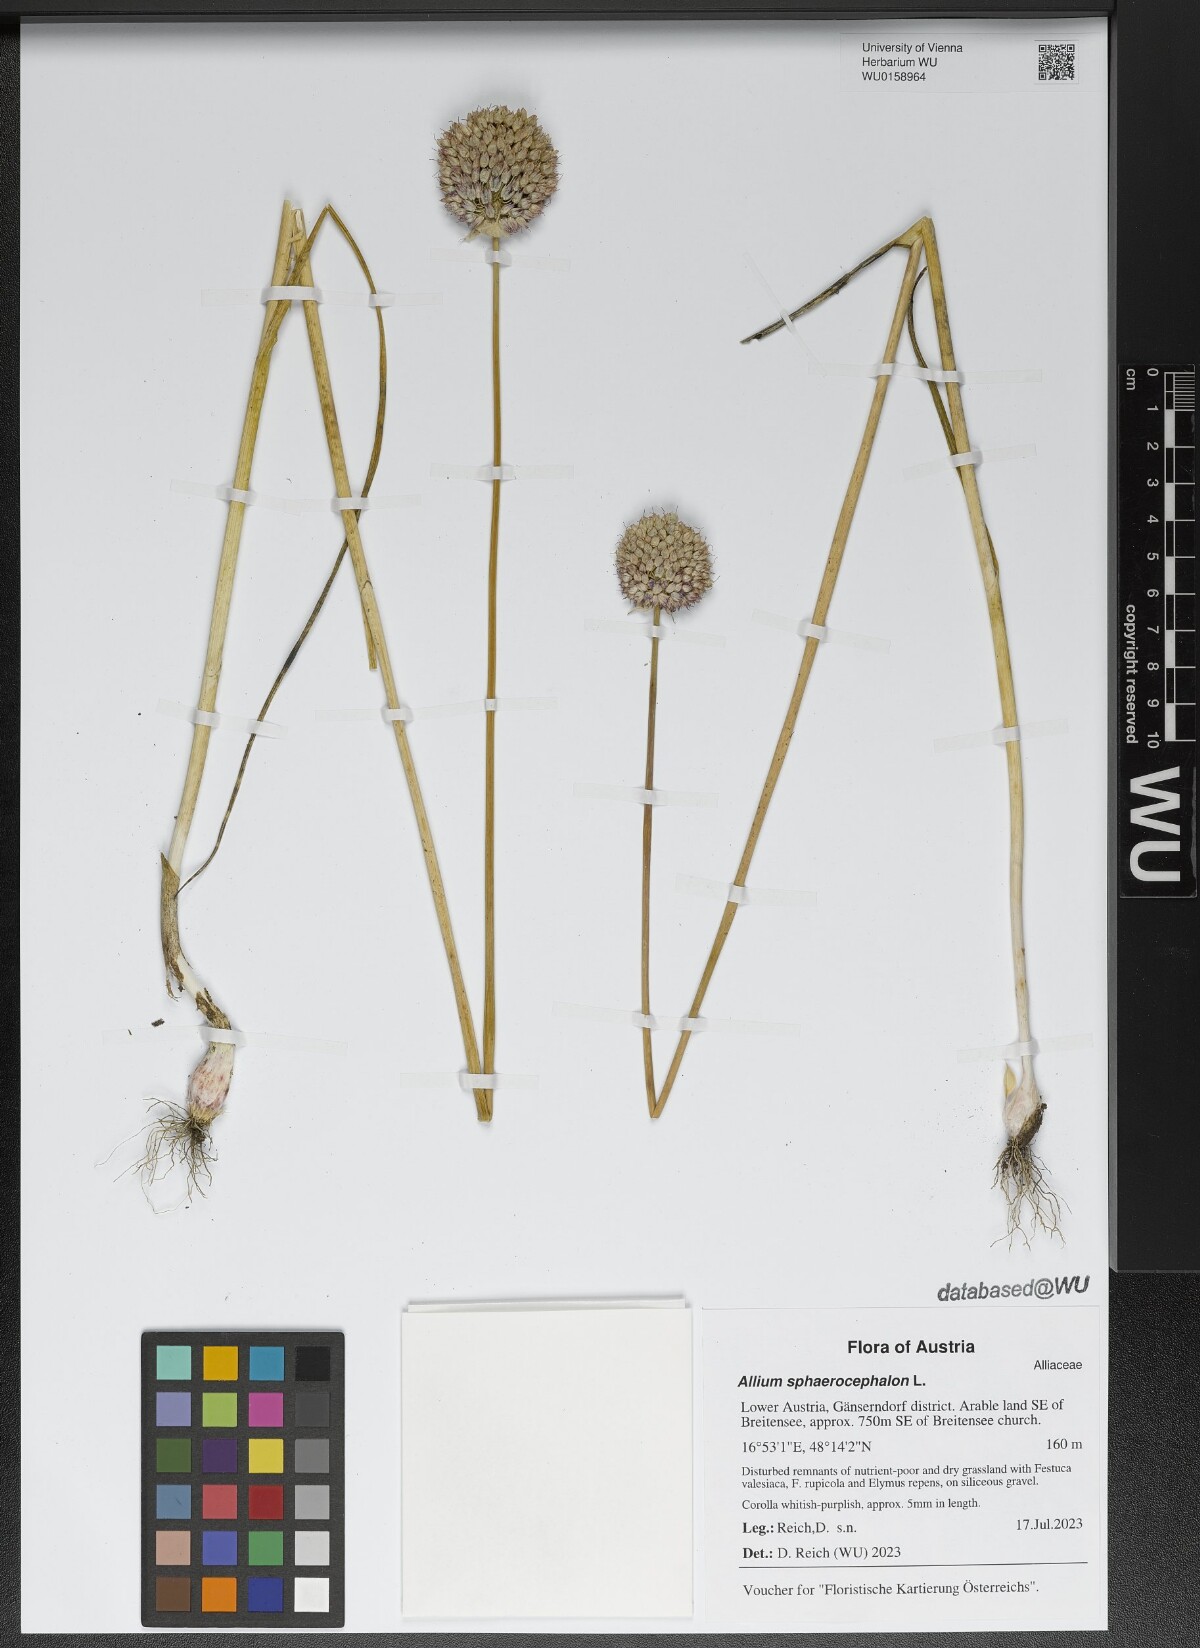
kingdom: Plantae
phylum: Tracheophyta
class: Liliopsida
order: Asparagales
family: Amaryllidaceae
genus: Allium
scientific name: Allium sphaerocephalon
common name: Round-headed leek
